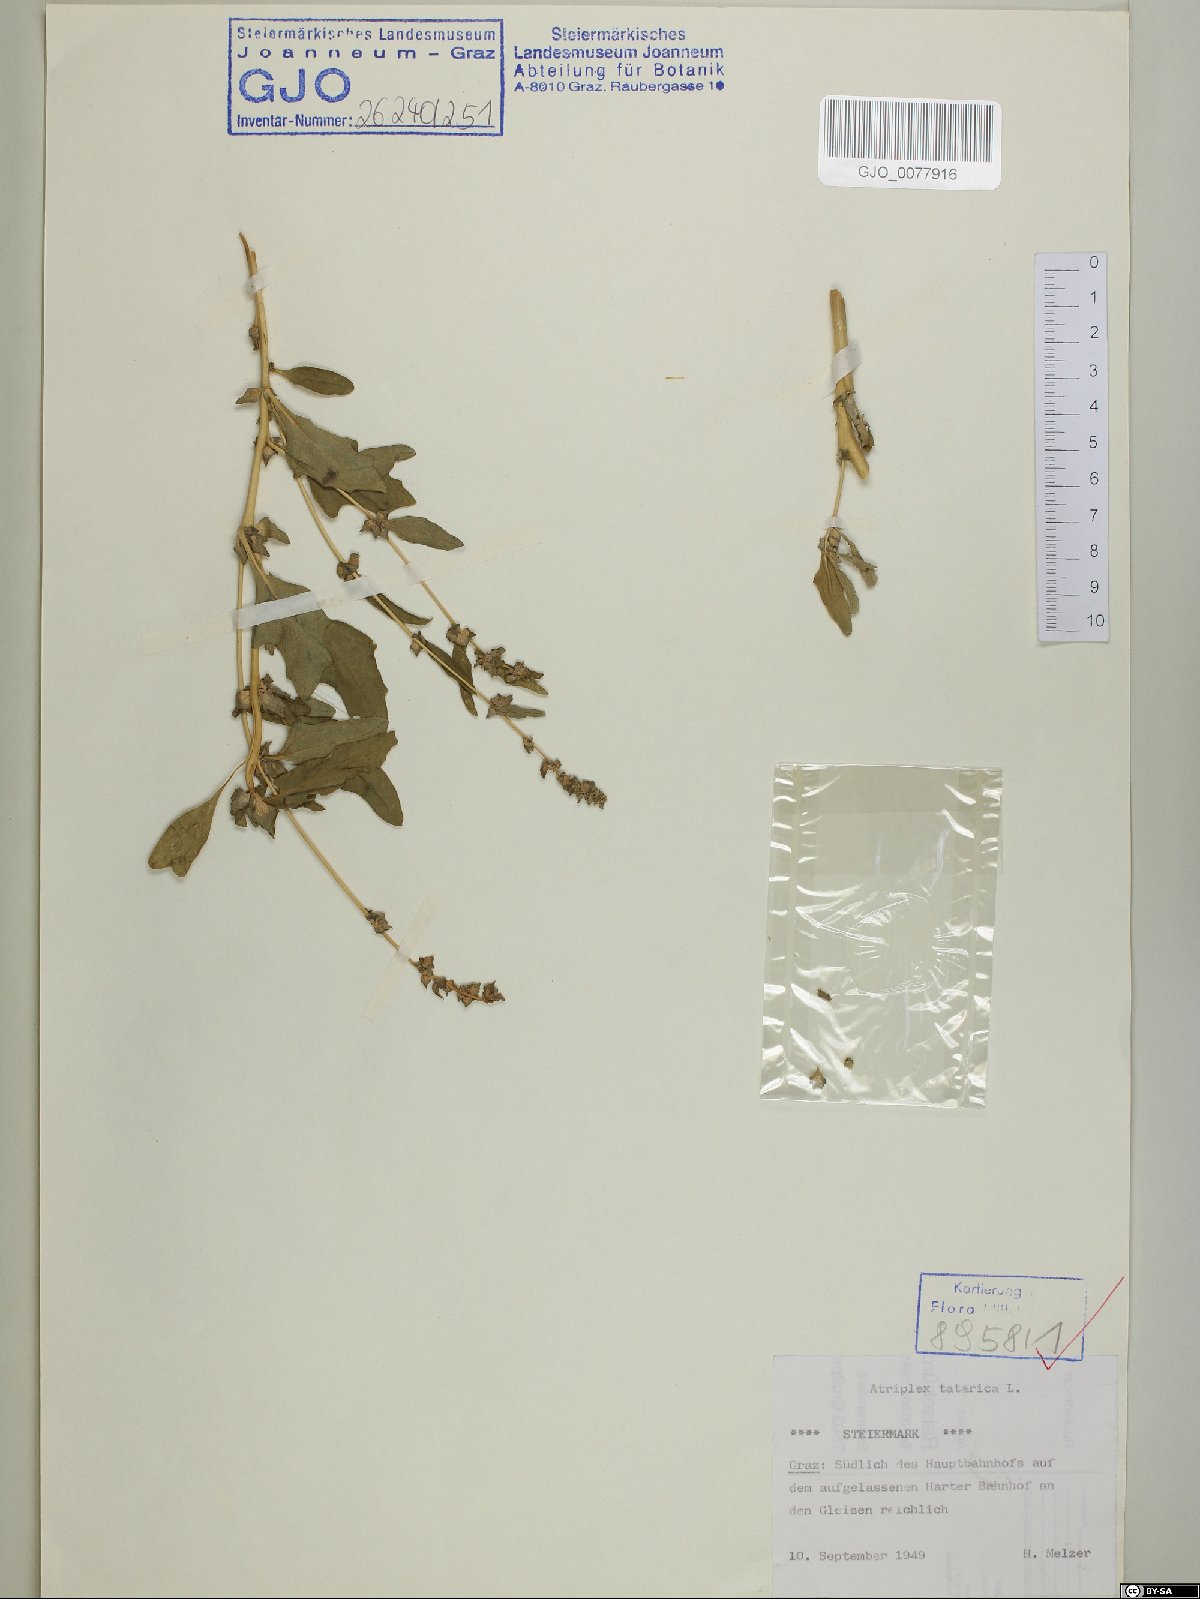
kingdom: Plantae
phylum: Tracheophyta
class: Magnoliopsida
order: Caryophyllales
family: Amaranthaceae
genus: Atriplex
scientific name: Atriplex tatarica
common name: Tatarian orache
